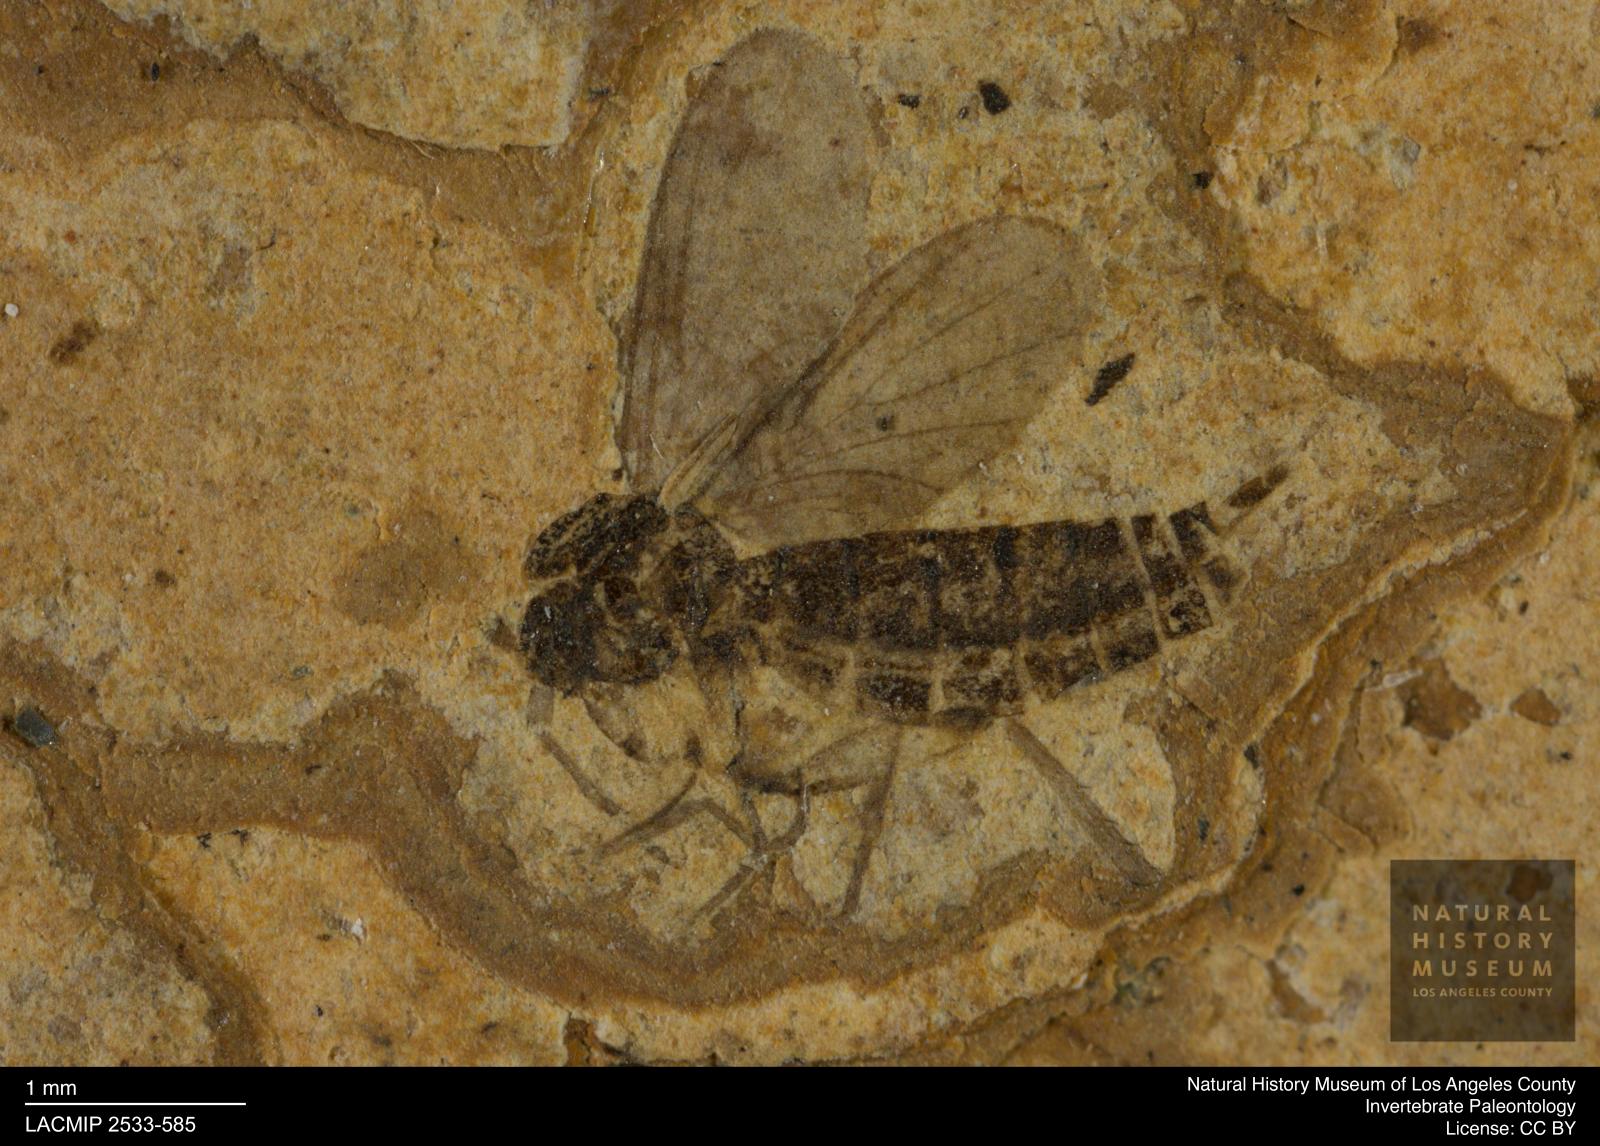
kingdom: Animalia
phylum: Arthropoda
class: Insecta
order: Diptera
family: Sciaridae
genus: Pseudolycoriella
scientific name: Pseudolycoriella jucunda
